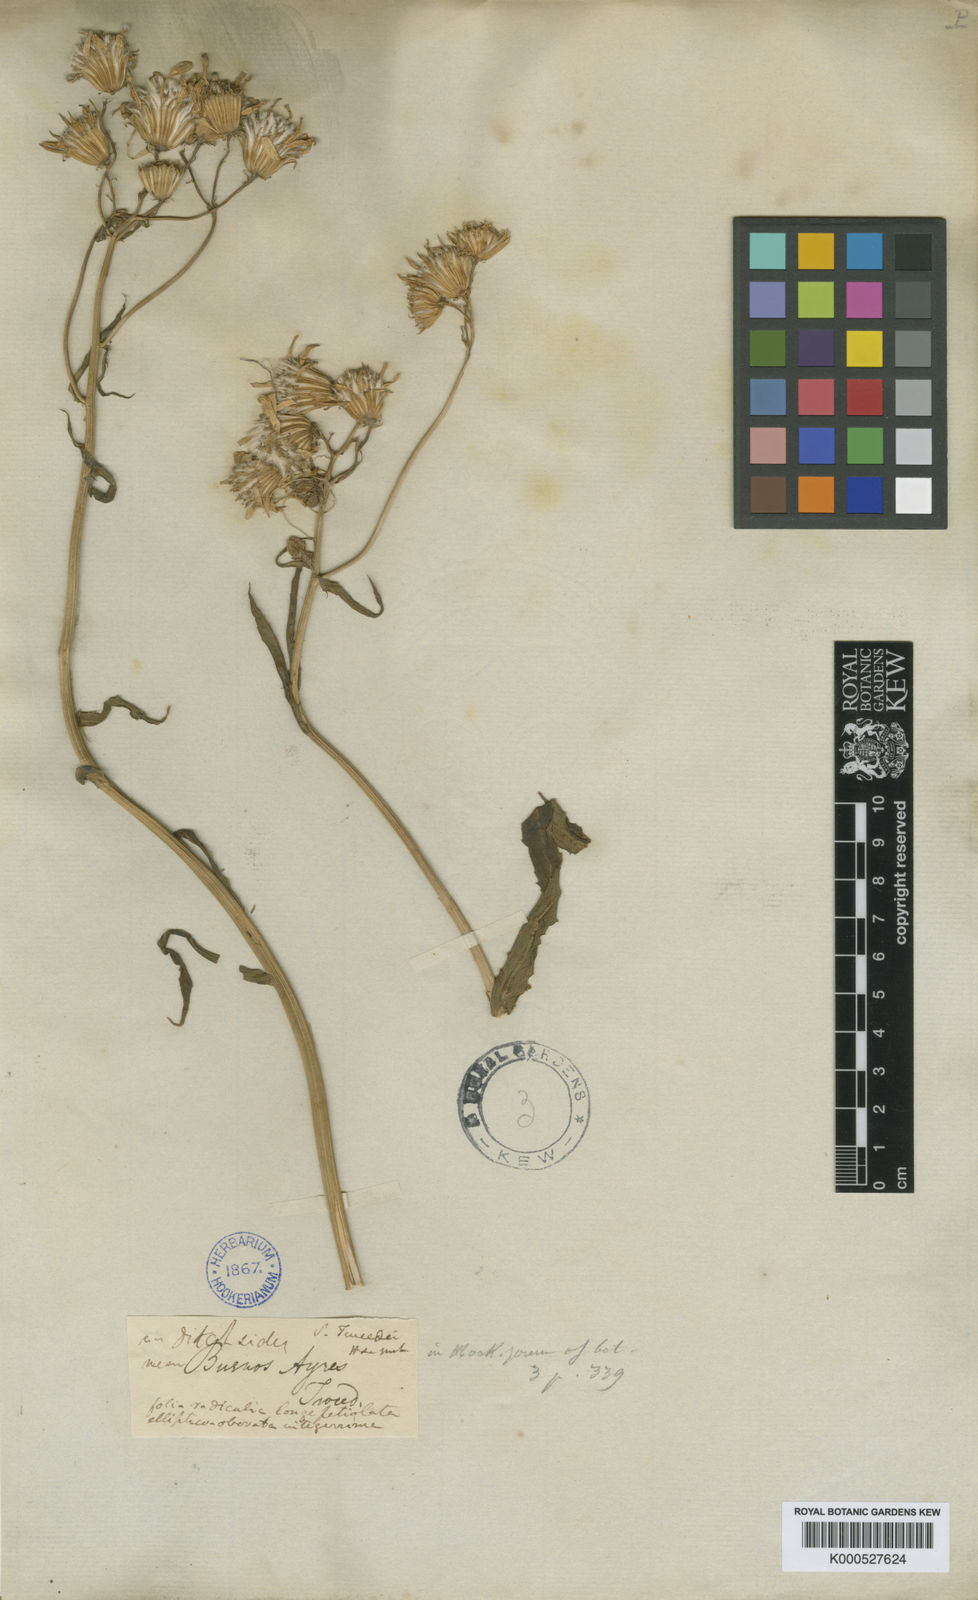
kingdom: Plantae
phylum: Tracheophyta
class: Magnoliopsida
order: Asterales
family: Asteraceae
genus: Senecio
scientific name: Senecio tweediei
